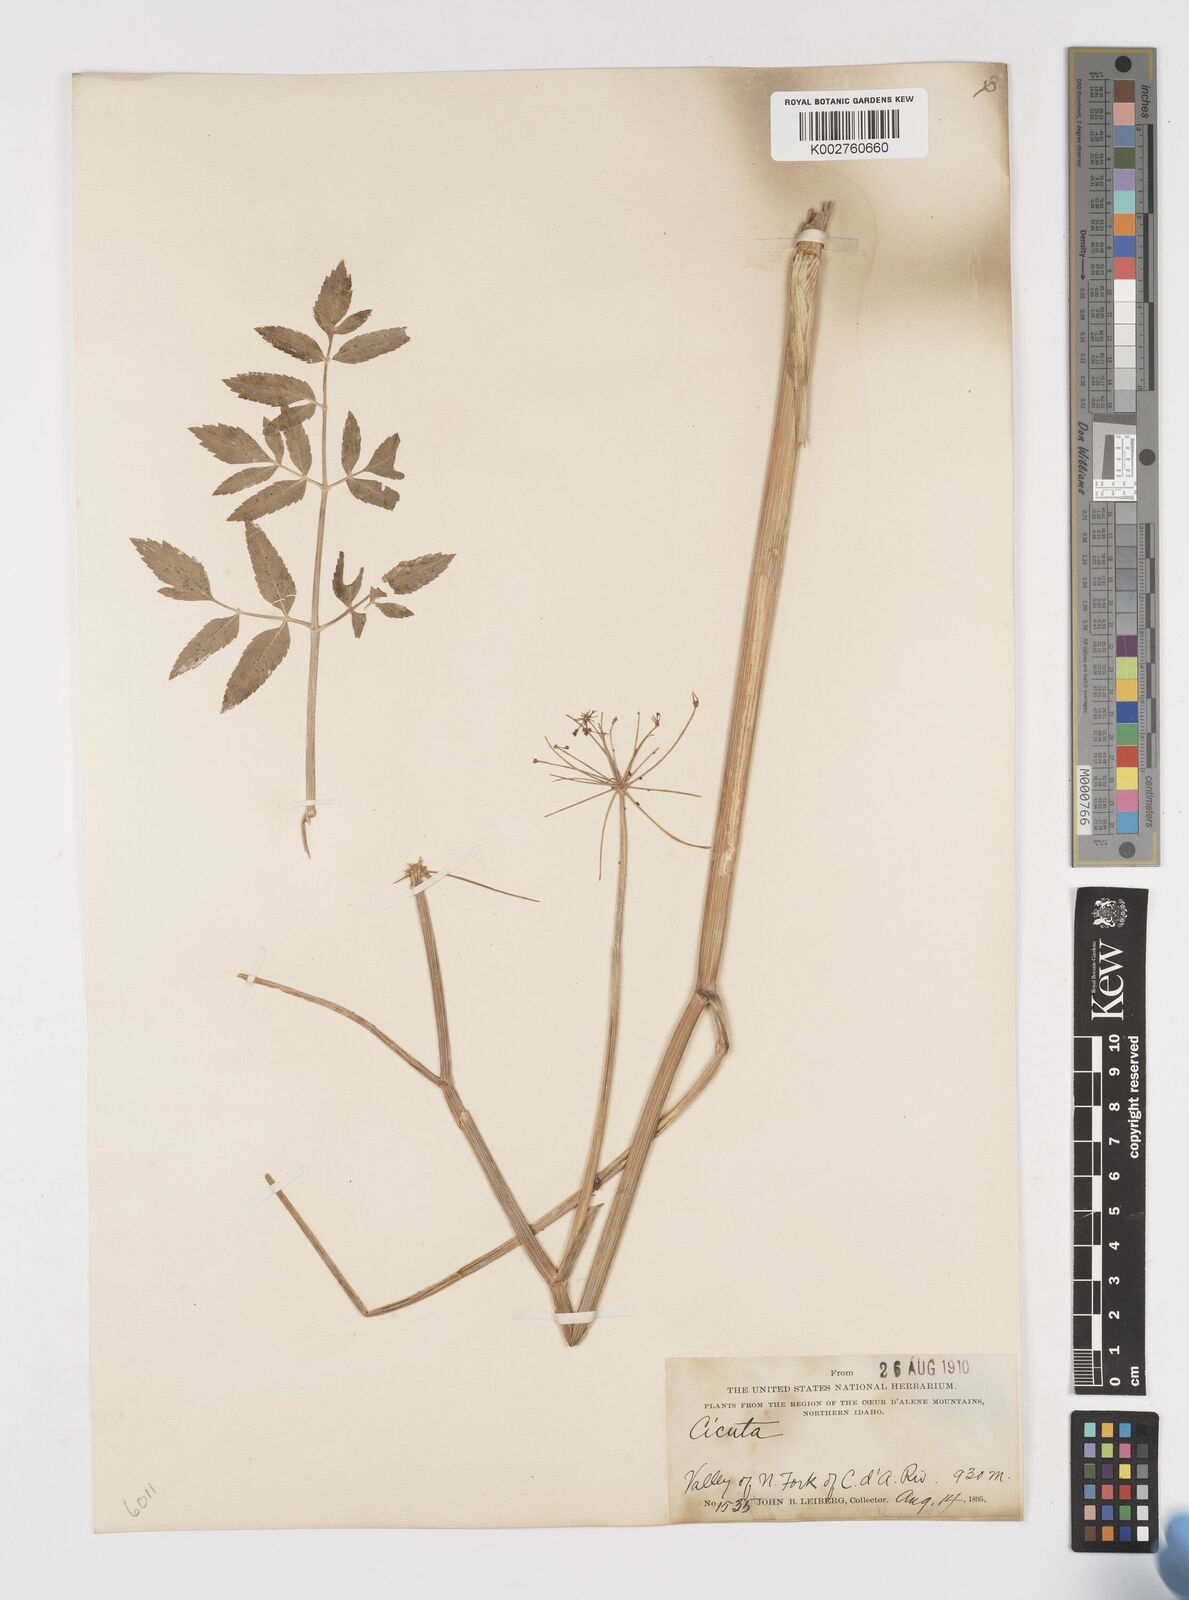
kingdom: Plantae
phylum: Tracheophyta
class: Magnoliopsida
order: Apiales
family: Apiaceae
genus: Cicuta
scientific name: Cicuta douglasii
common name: Western water-hemlock
